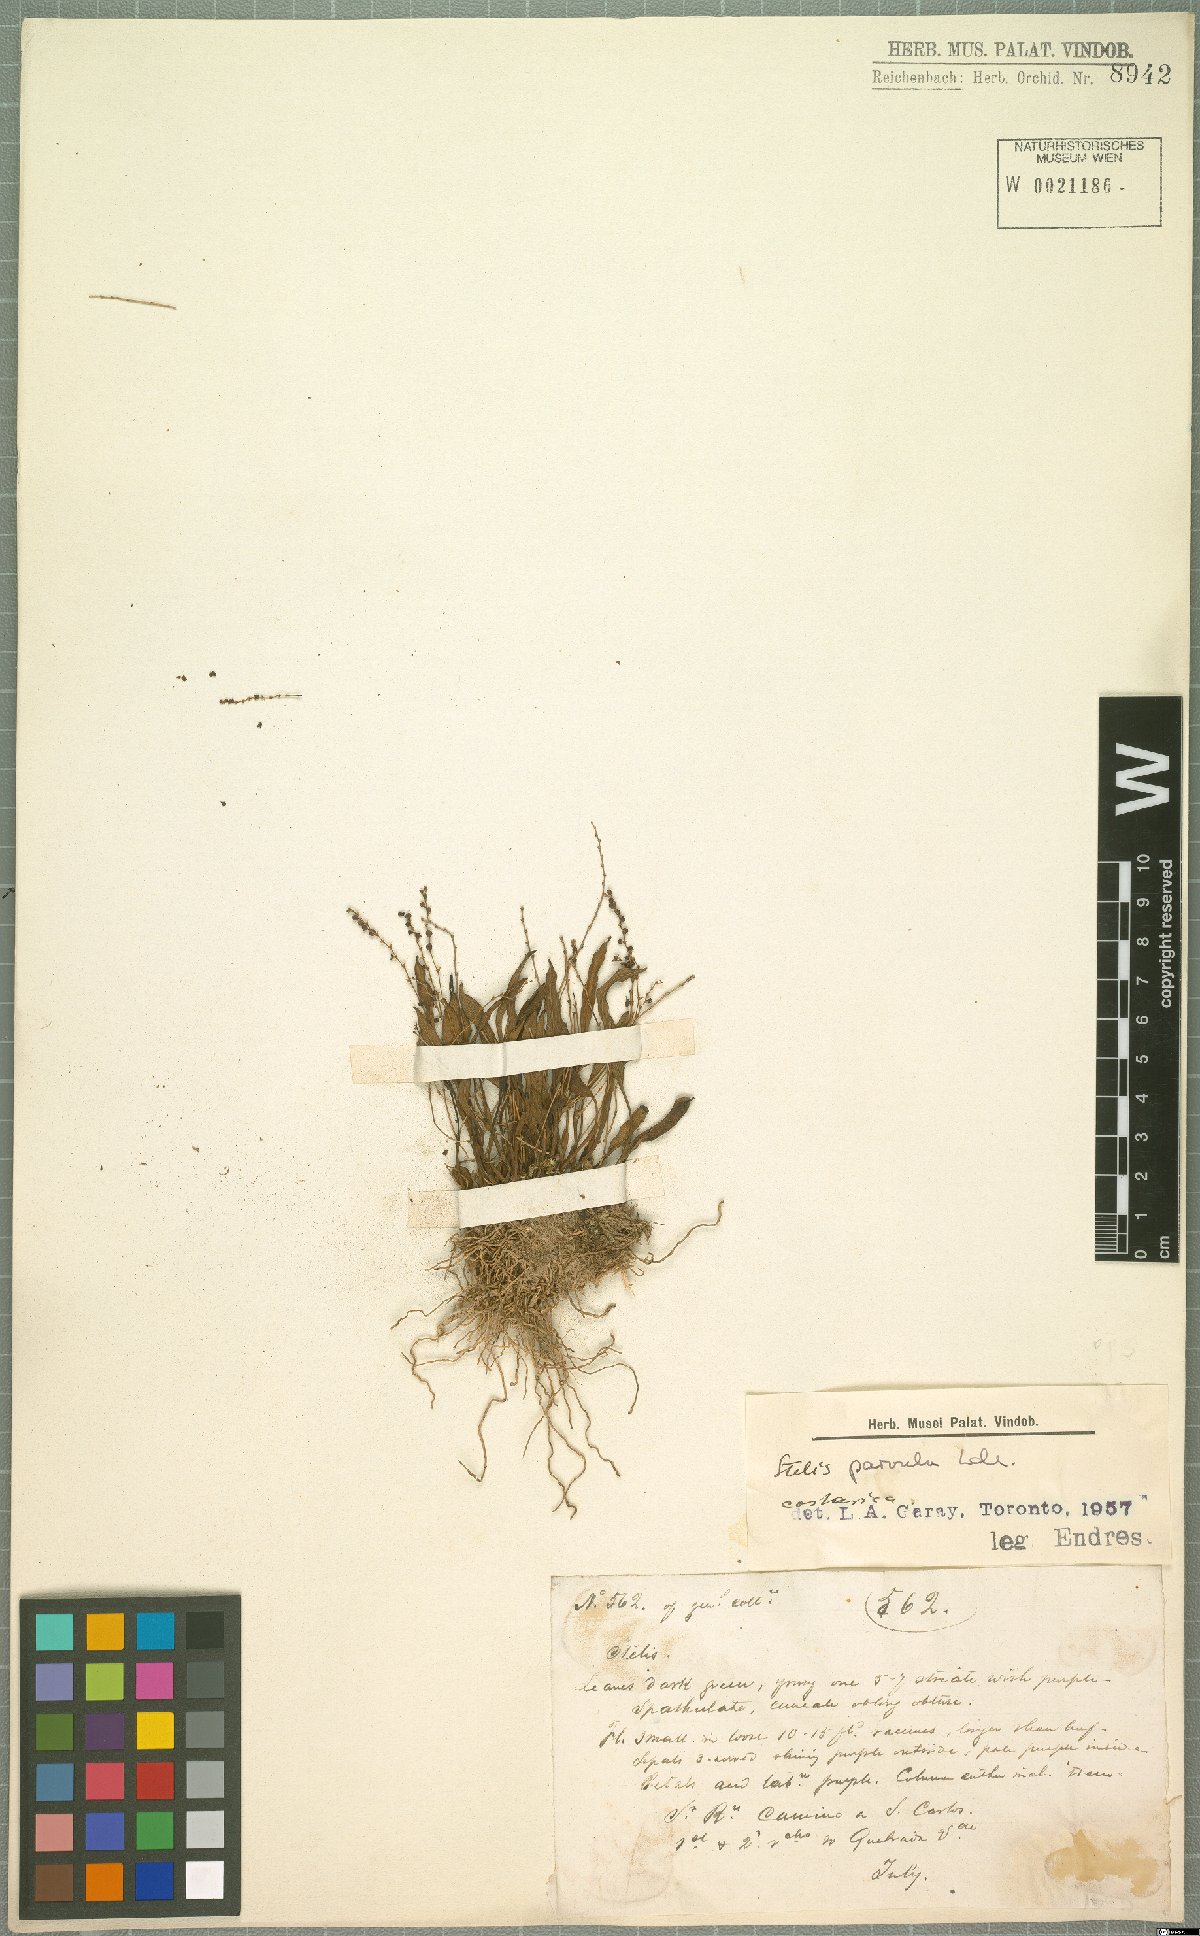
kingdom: Plantae
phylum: Tracheophyta
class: Liliopsida
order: Asparagales
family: Orchidaceae
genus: Stelis
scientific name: Stelis parvula
